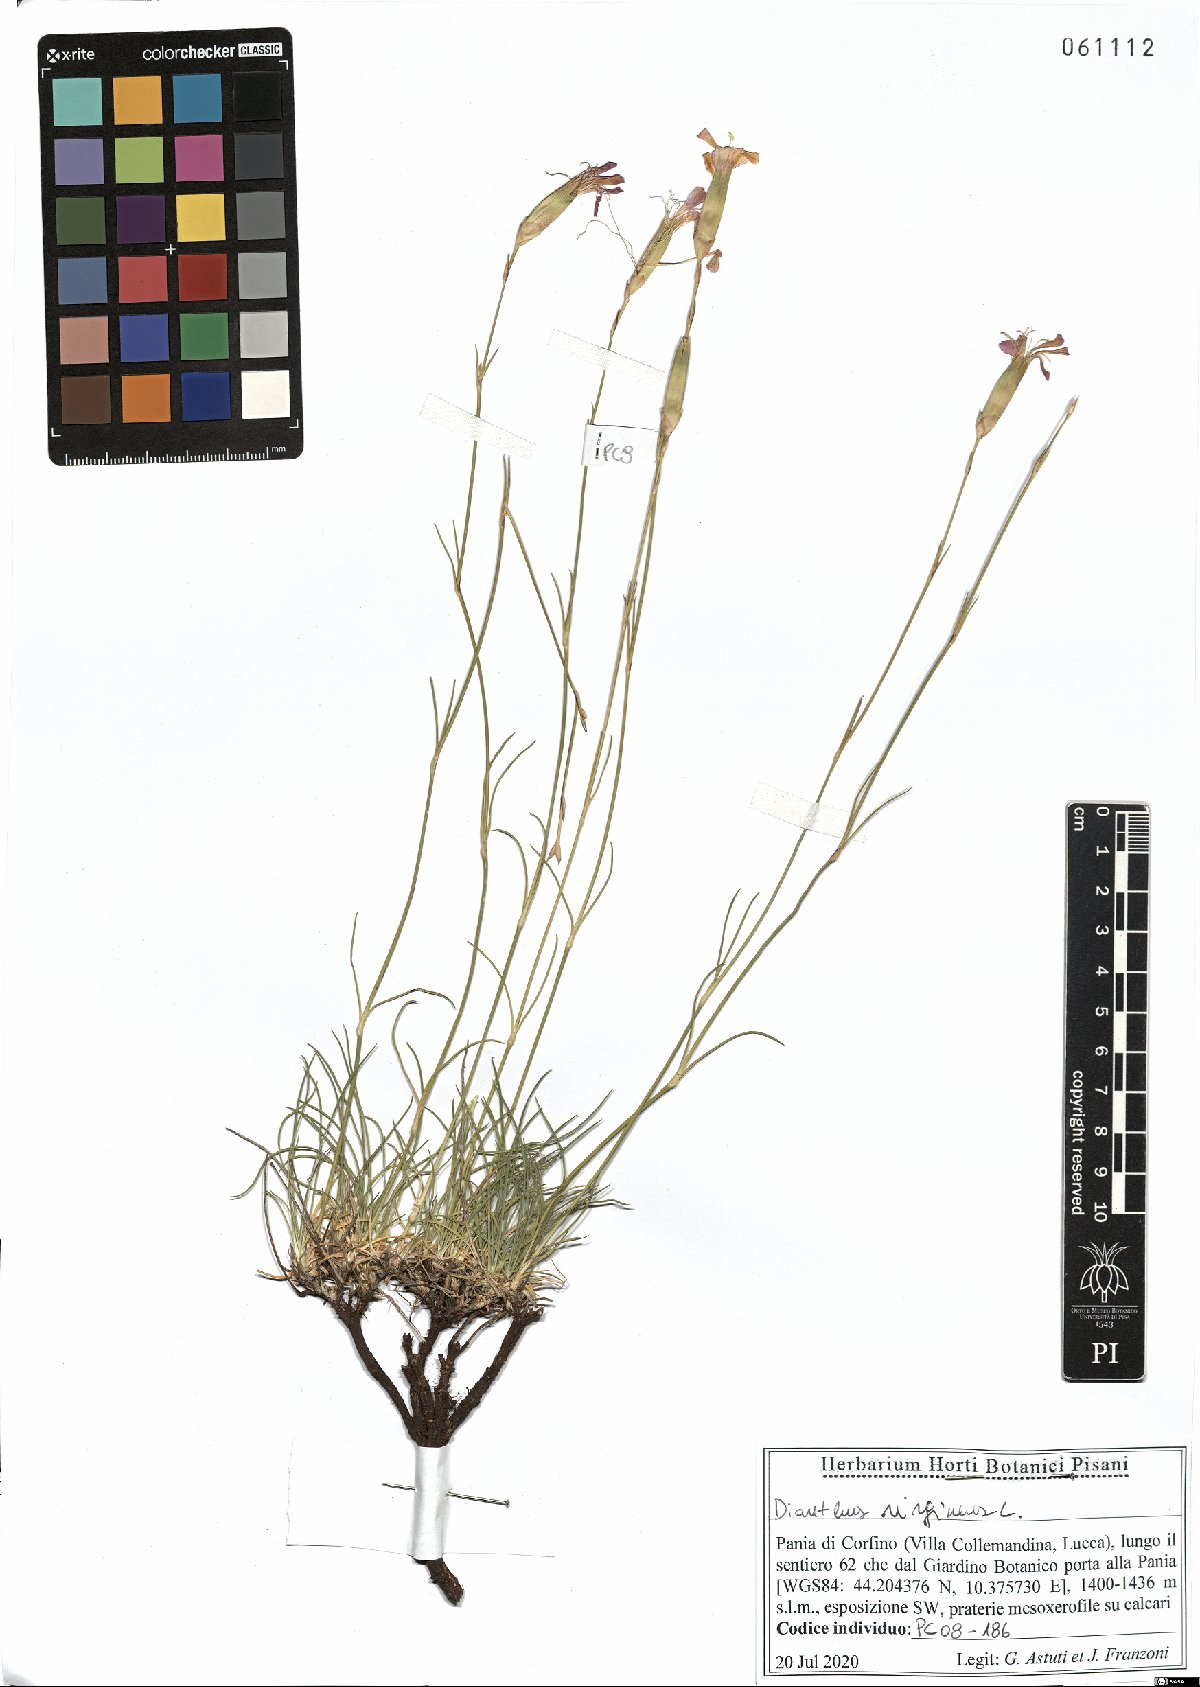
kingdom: Plantae
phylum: Tracheophyta
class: Magnoliopsida
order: Caryophyllales
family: Caryophyllaceae
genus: Dianthus
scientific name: Dianthus virgineus
